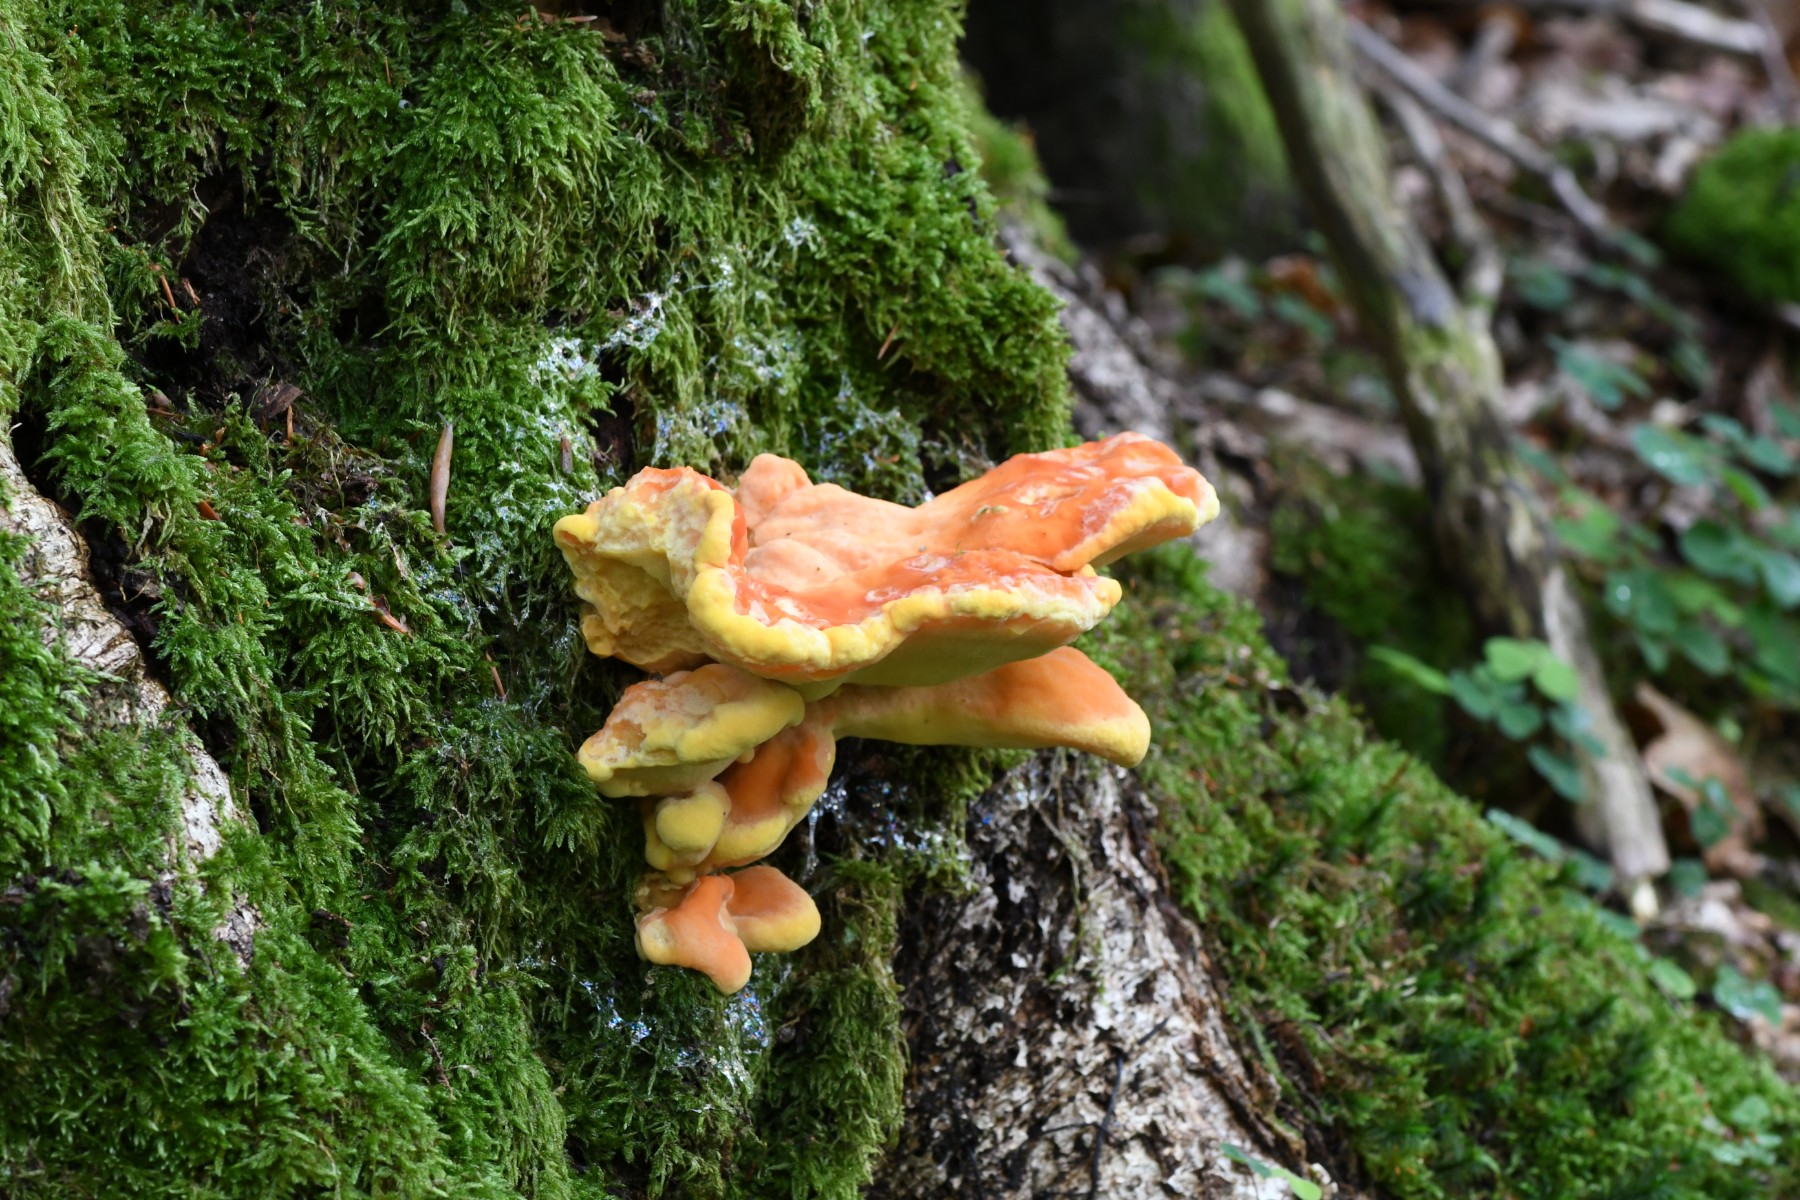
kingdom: Fungi
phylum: Basidiomycota
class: Agaricomycetes
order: Polyporales
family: Laetiporaceae
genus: Laetiporus
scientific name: Laetiporus sulphureus
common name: svovlporesvamp
